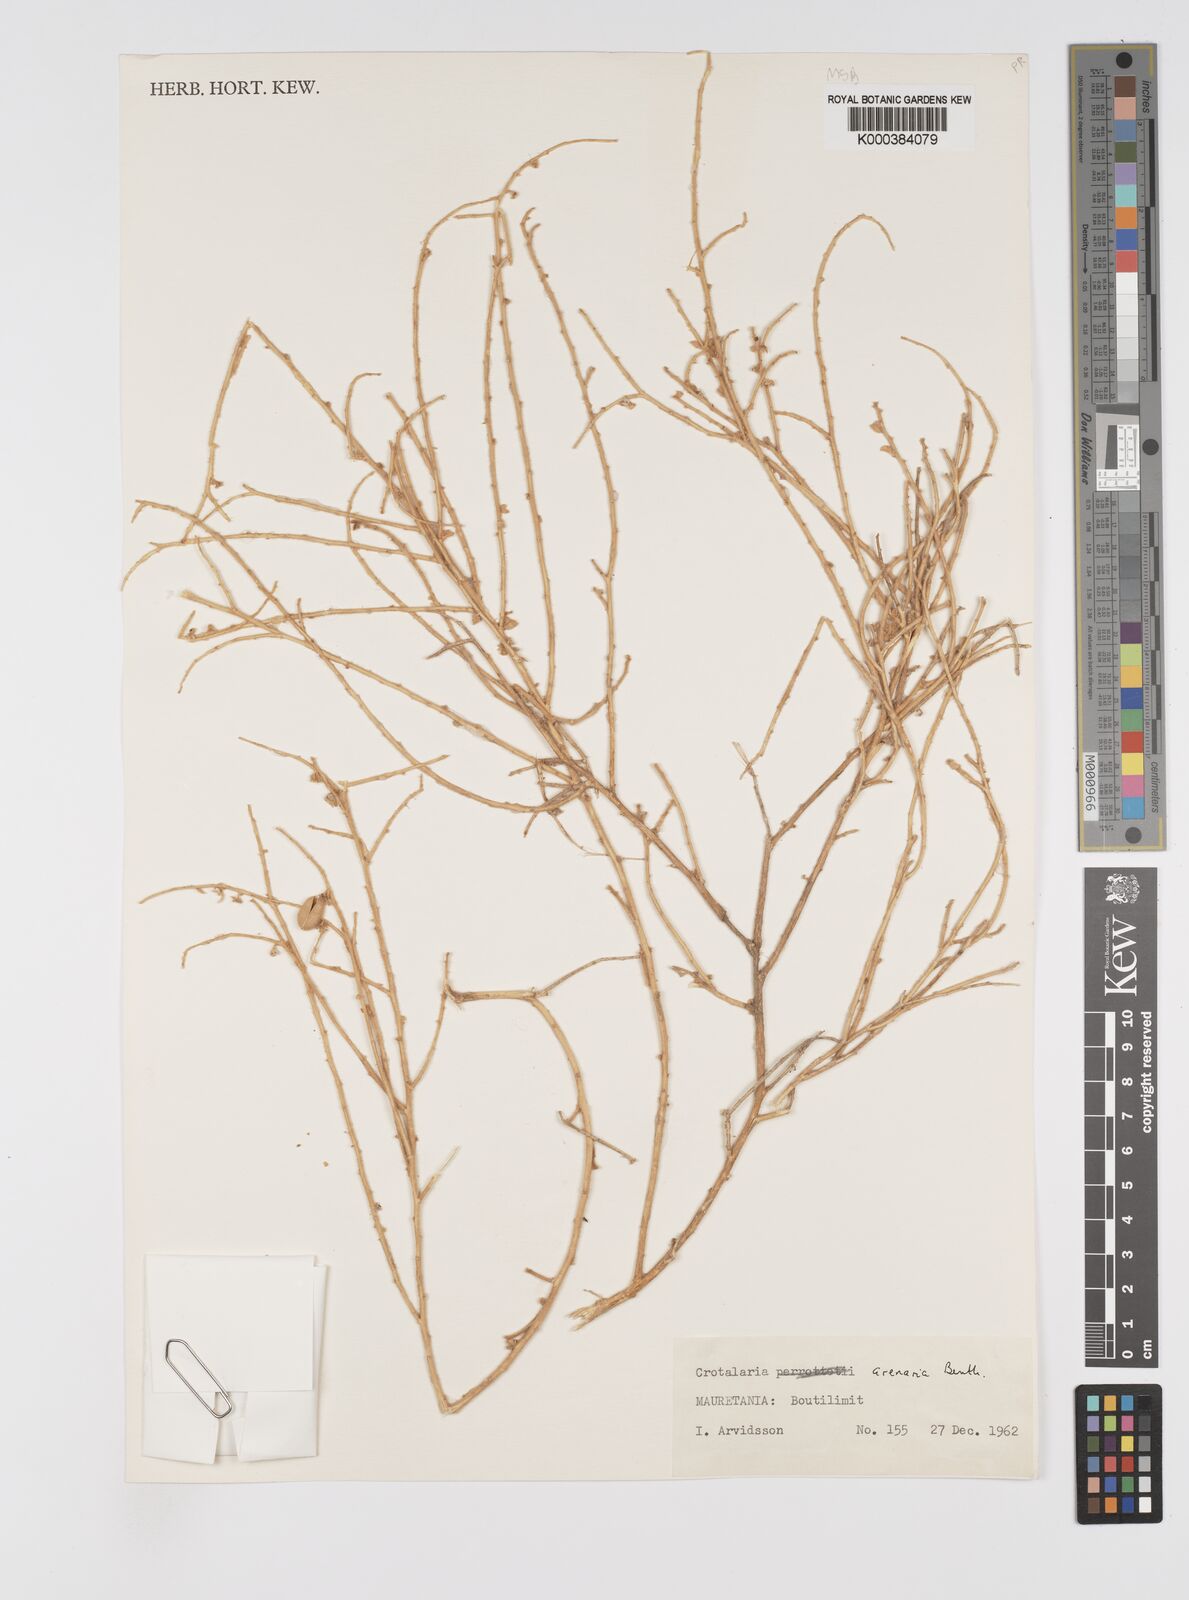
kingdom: Plantae
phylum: Tracheophyta
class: Magnoliopsida
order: Fabales
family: Fabaceae
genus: Crotalaria
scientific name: Crotalaria arenaria
